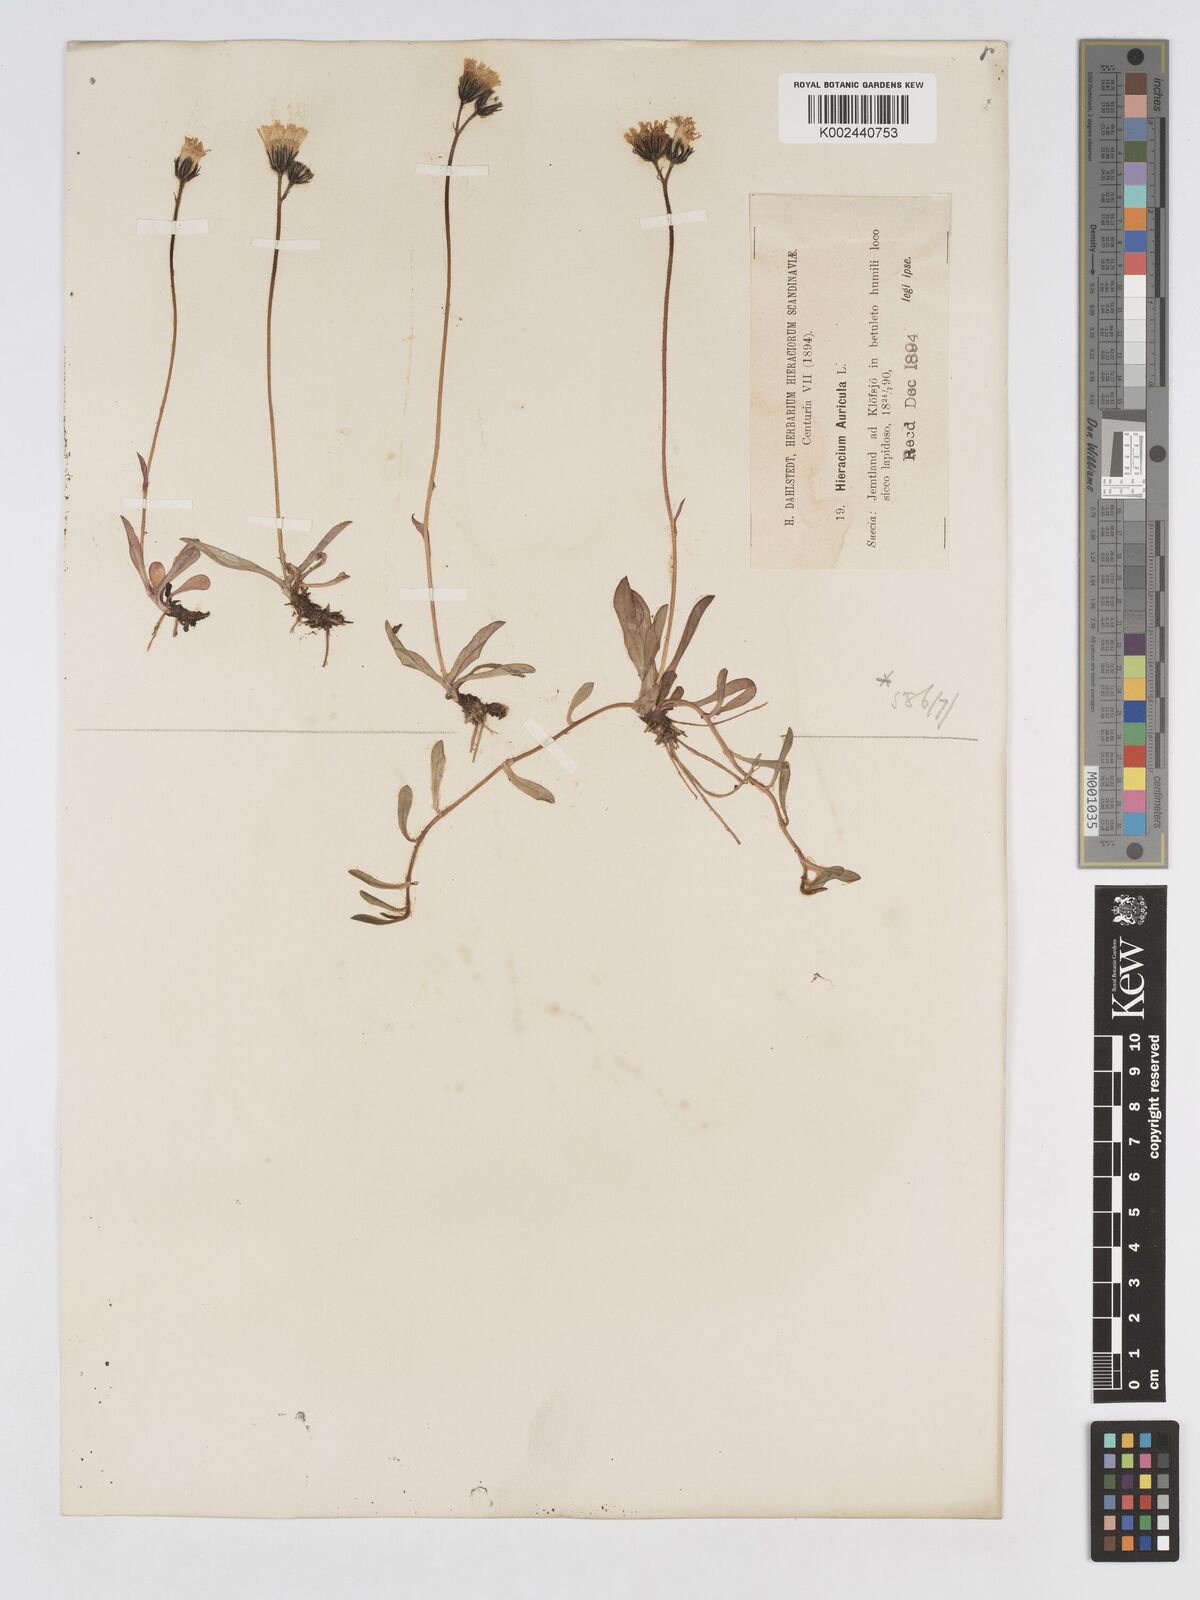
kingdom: Plantae
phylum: Tracheophyta
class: Magnoliopsida
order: Asterales
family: Asteraceae
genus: Pilosella
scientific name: Pilosella floribunda
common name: Glaucous hawkweed
